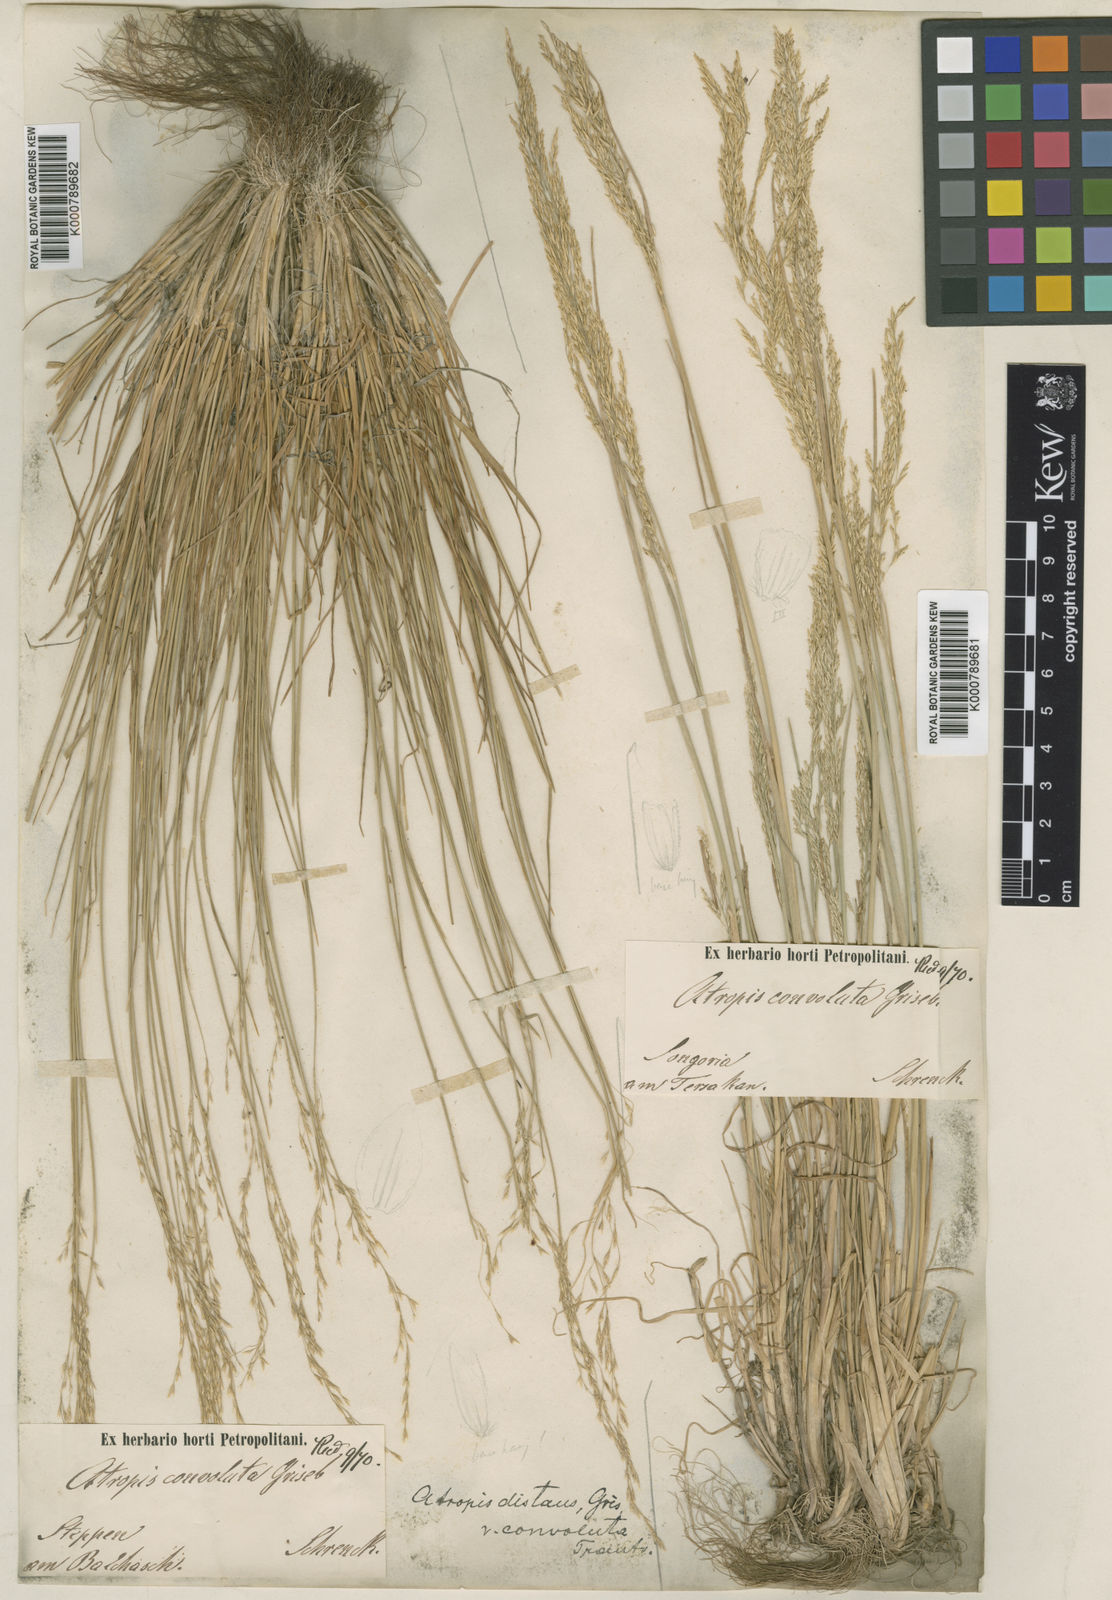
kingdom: Plantae
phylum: Tracheophyta
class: Liliopsida
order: Poales
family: Poaceae
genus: Puccinellia
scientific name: Puccinellia distans
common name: Weeping alkaligrass
